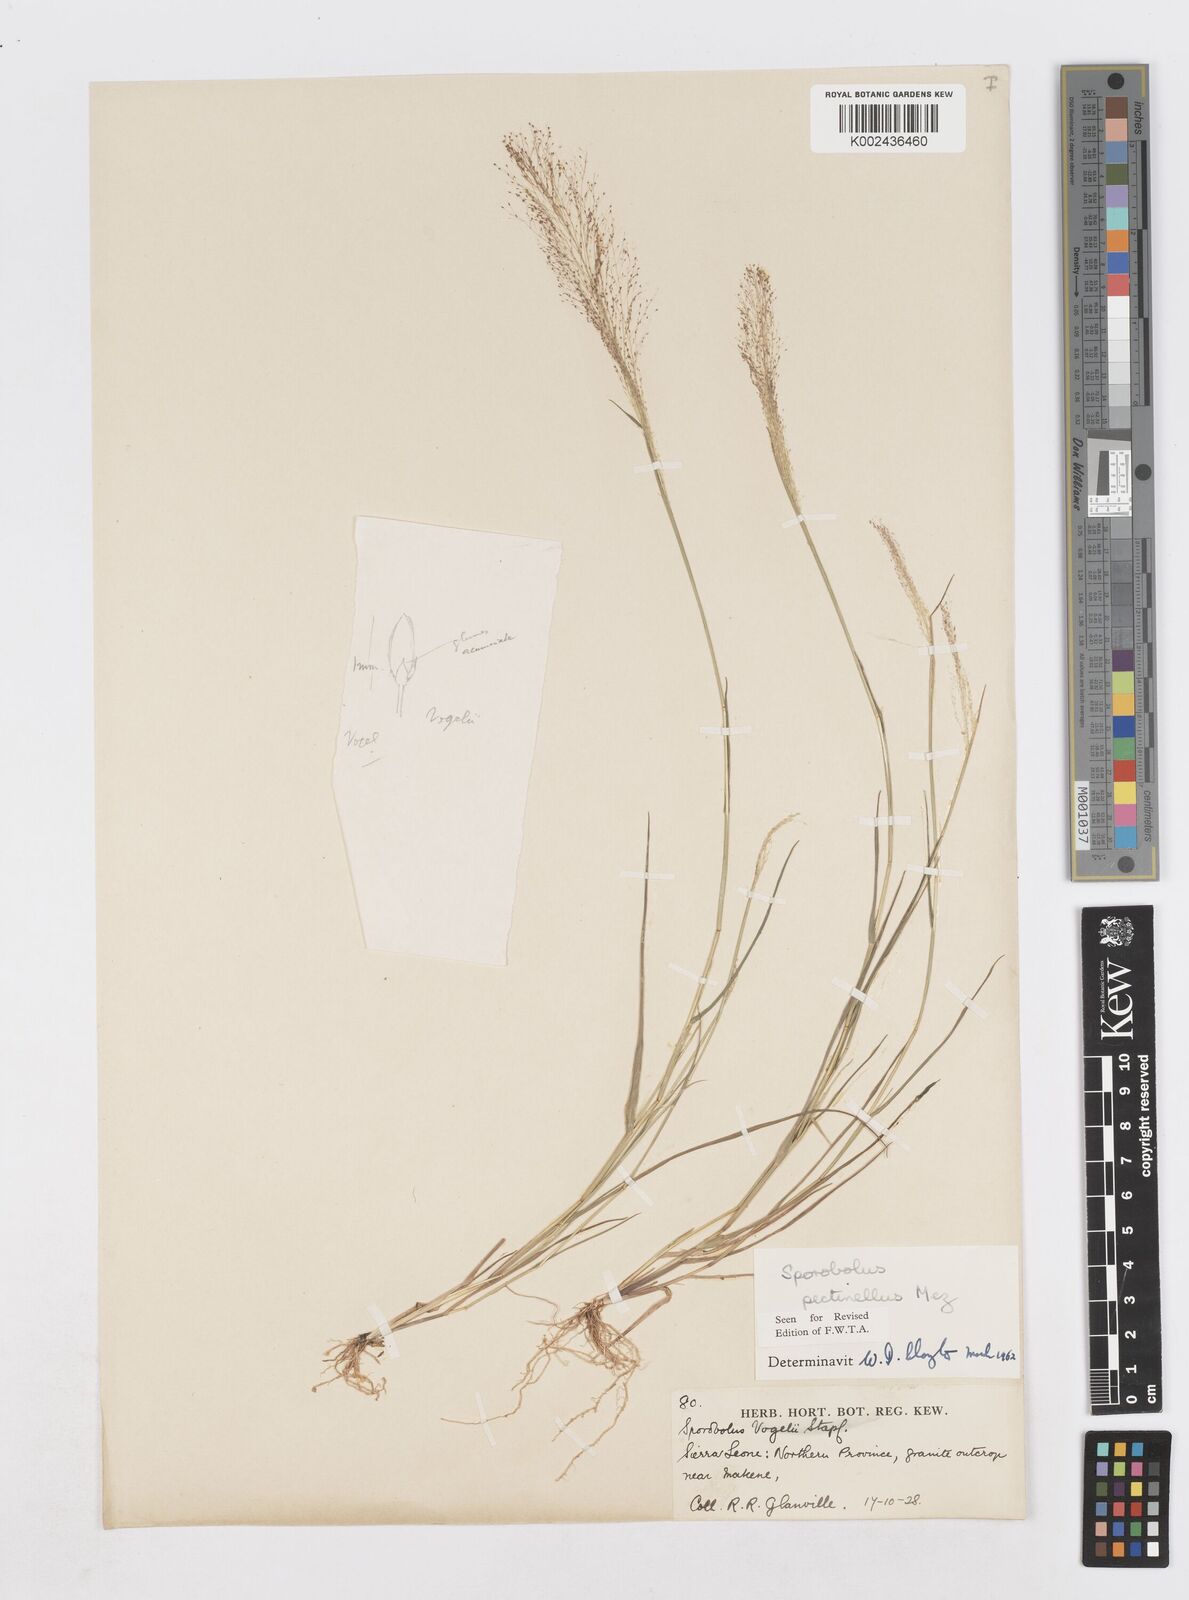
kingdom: Plantae
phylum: Tracheophyta
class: Liliopsida
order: Poales
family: Poaceae
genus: Sporobolus
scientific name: Sporobolus pectinellus
